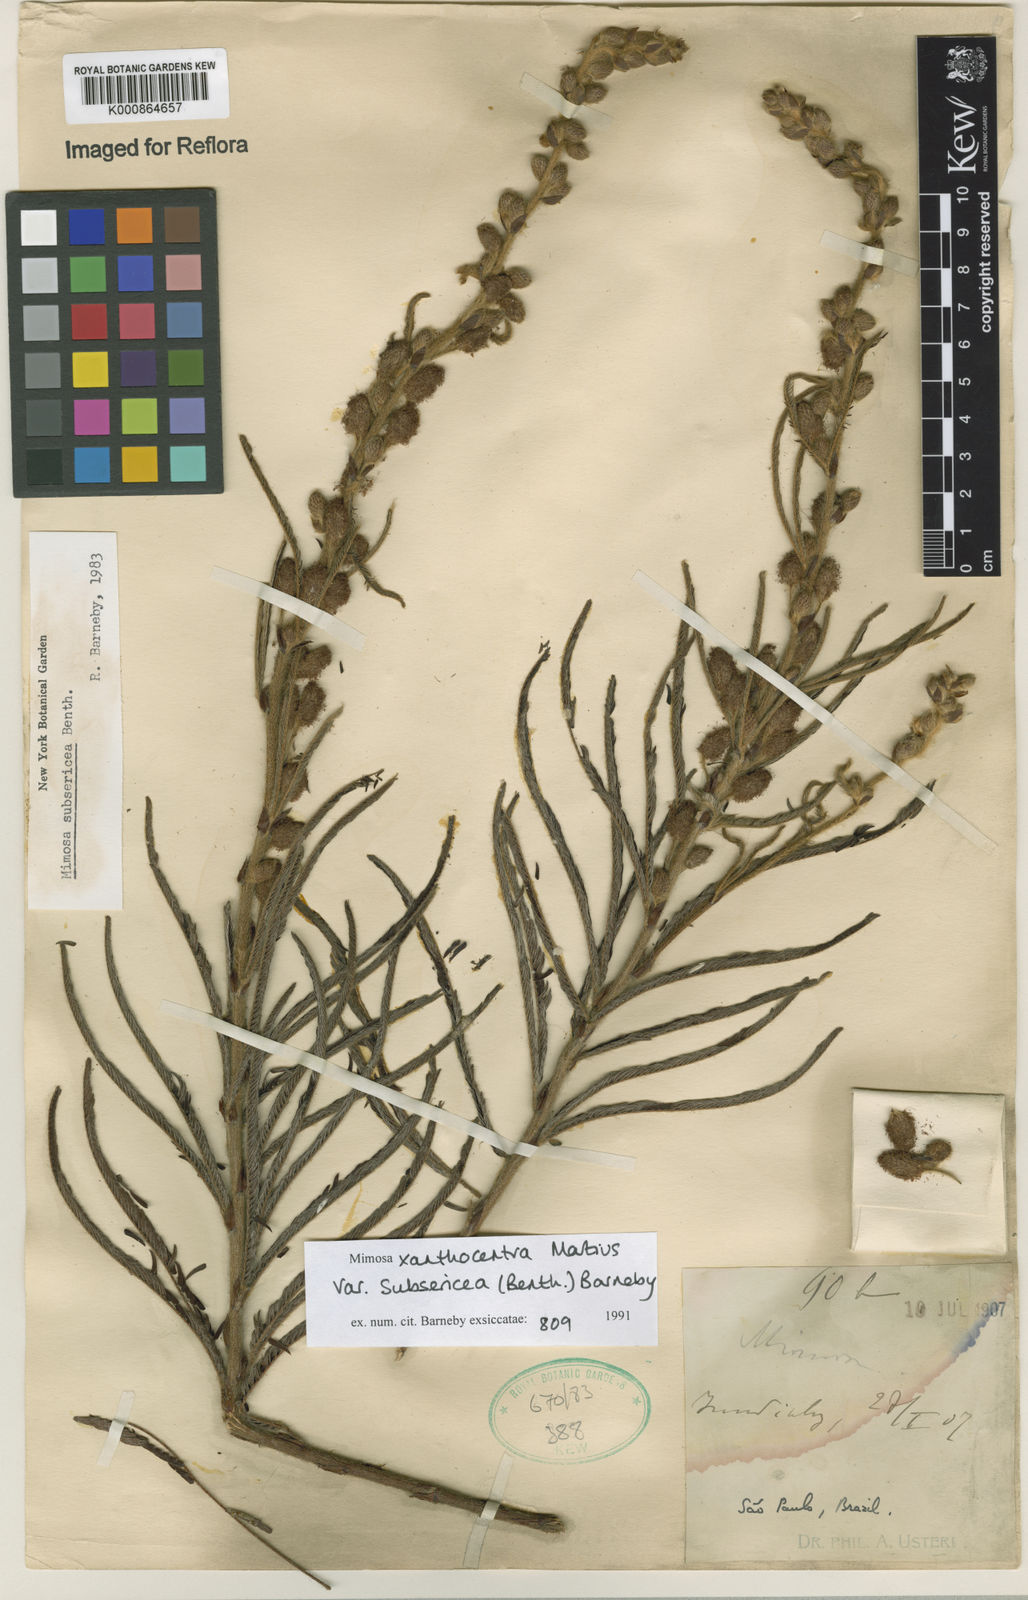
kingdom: Plantae
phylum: Tracheophyta
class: Magnoliopsida
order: Fabales
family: Fabaceae
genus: Mimosa
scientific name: Mimosa xanthocentra
